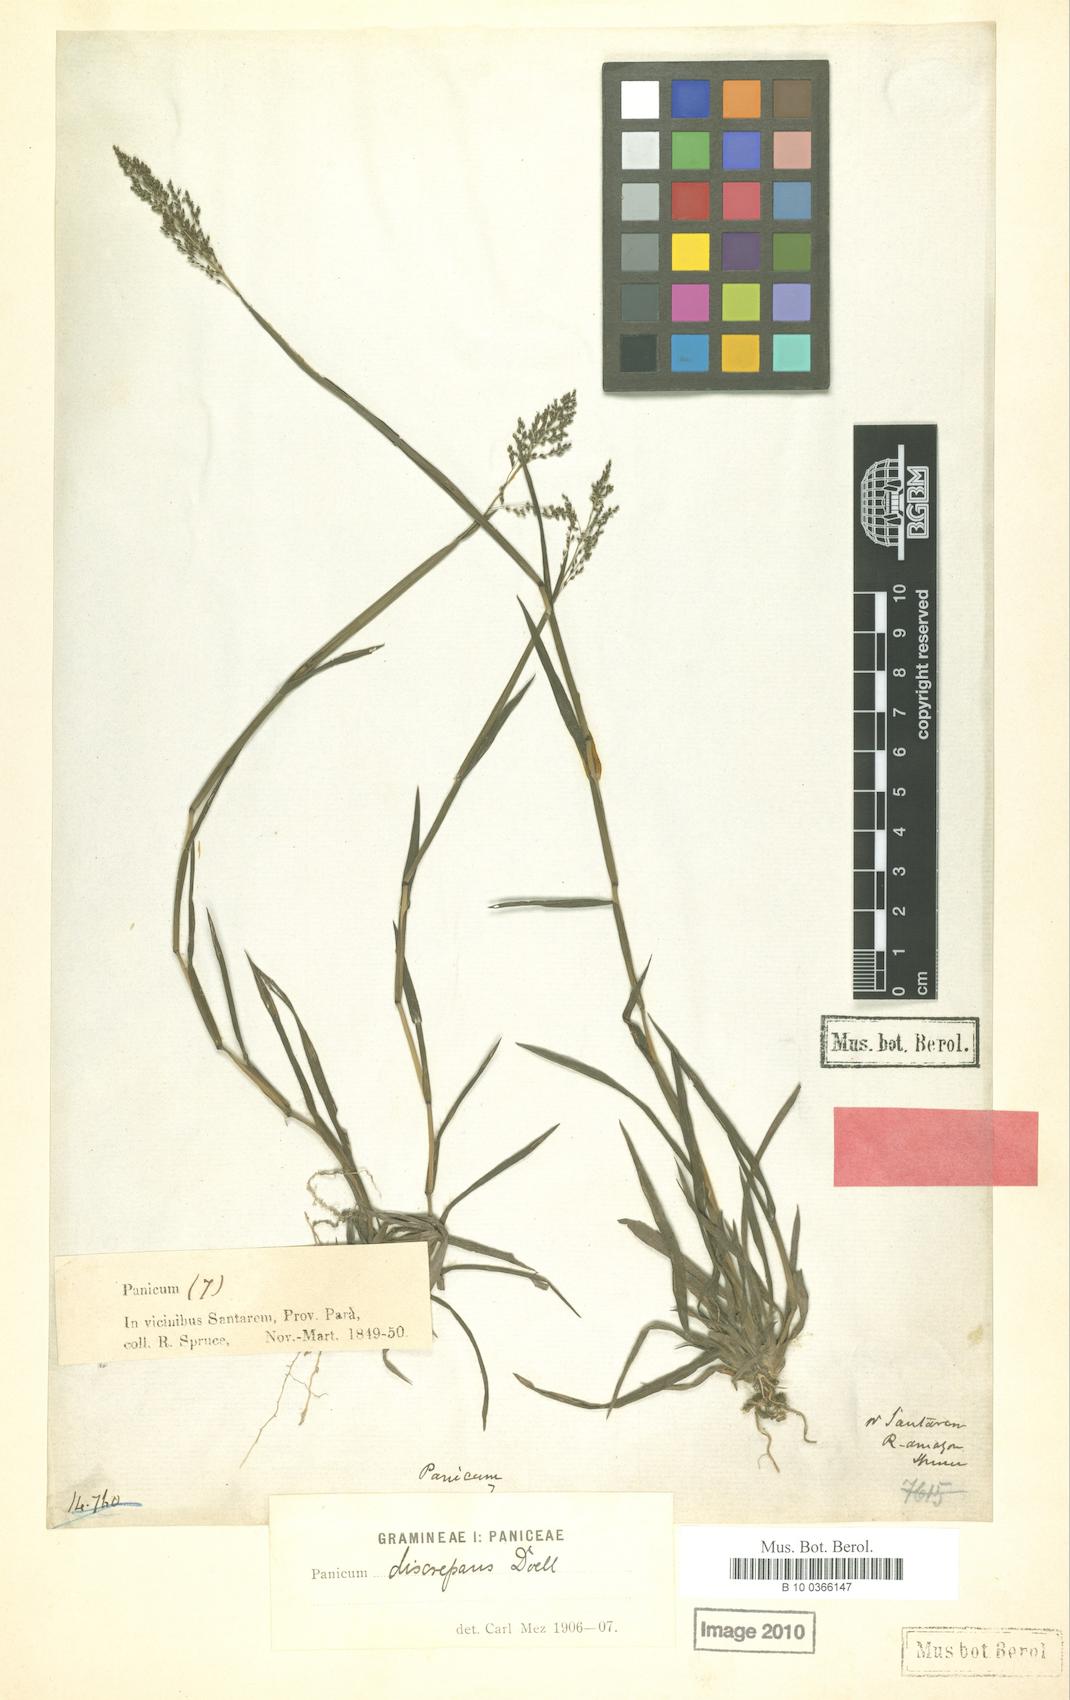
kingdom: Plantae
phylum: Tracheophyta
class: Liliopsida
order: Poales
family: Poaceae
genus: Cyphonanthus
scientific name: Cyphonanthus discrepans
